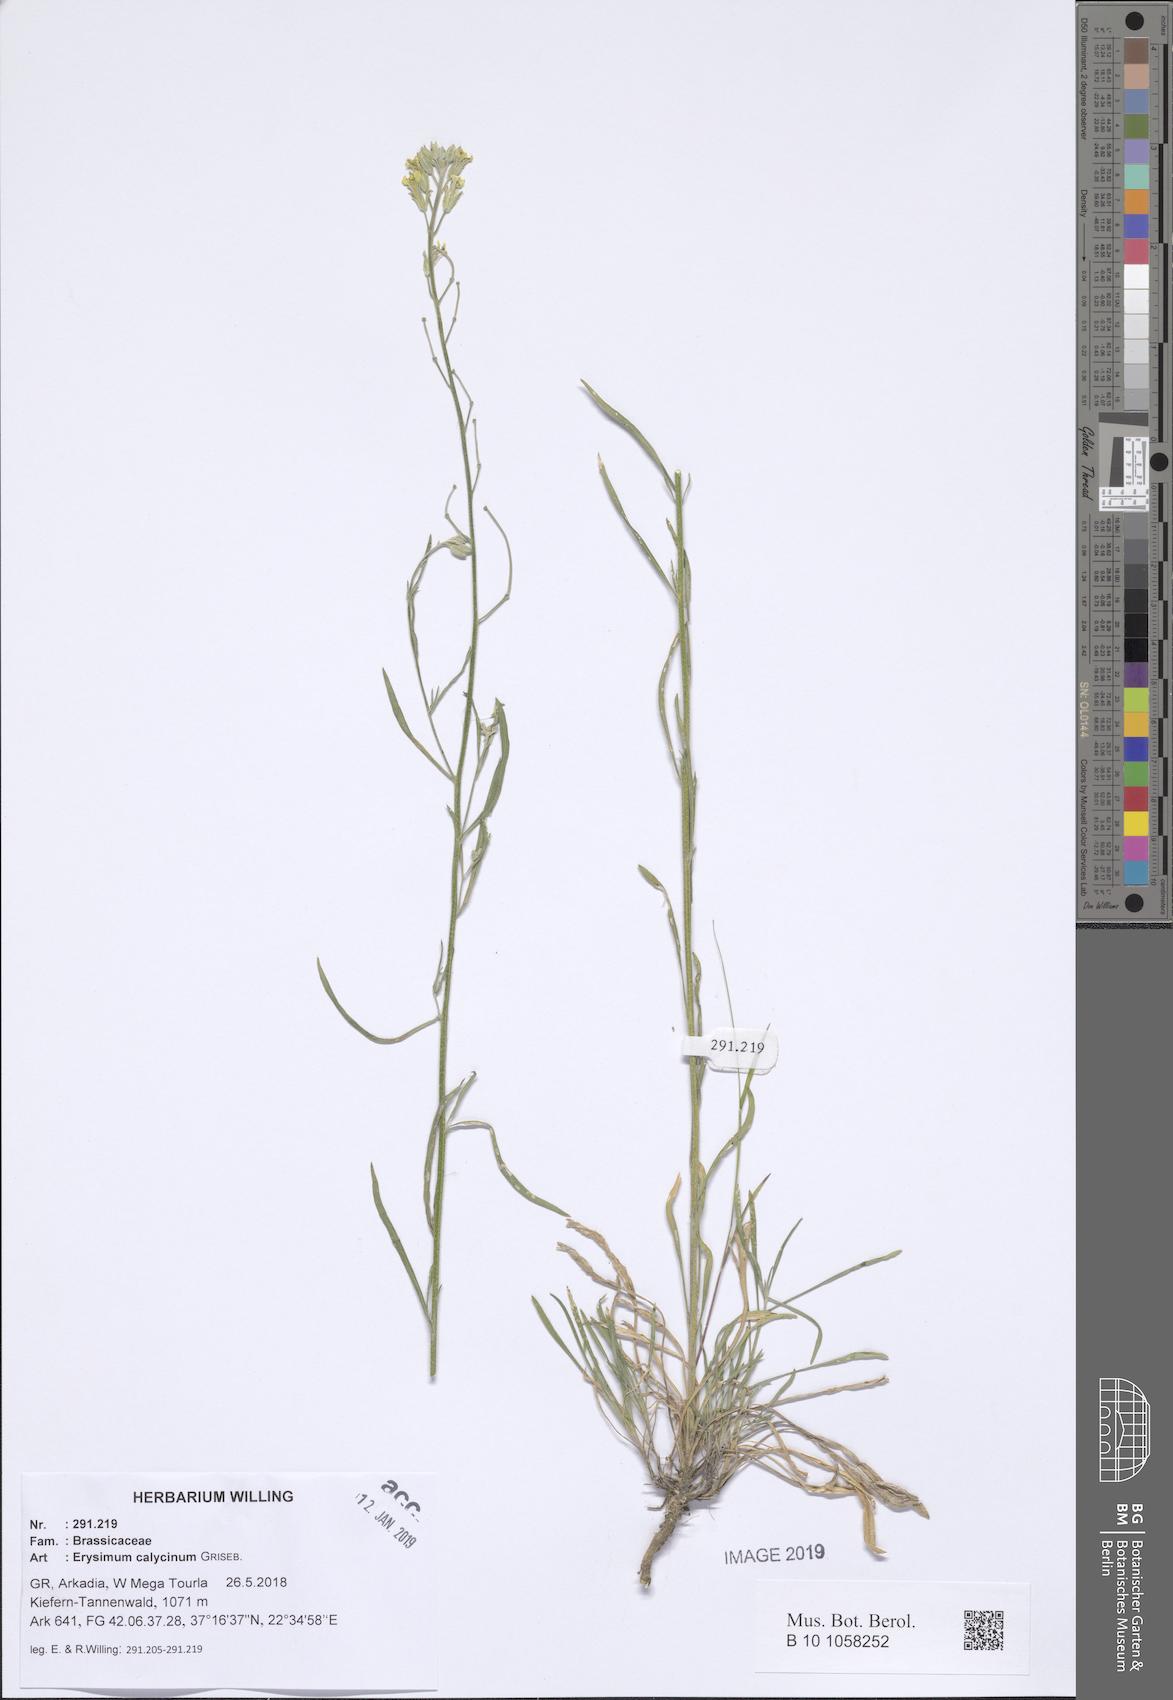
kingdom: Plantae
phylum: Tracheophyta
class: Magnoliopsida
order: Brassicales
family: Brassicaceae
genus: Erysimum
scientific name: Erysimum calycinum
